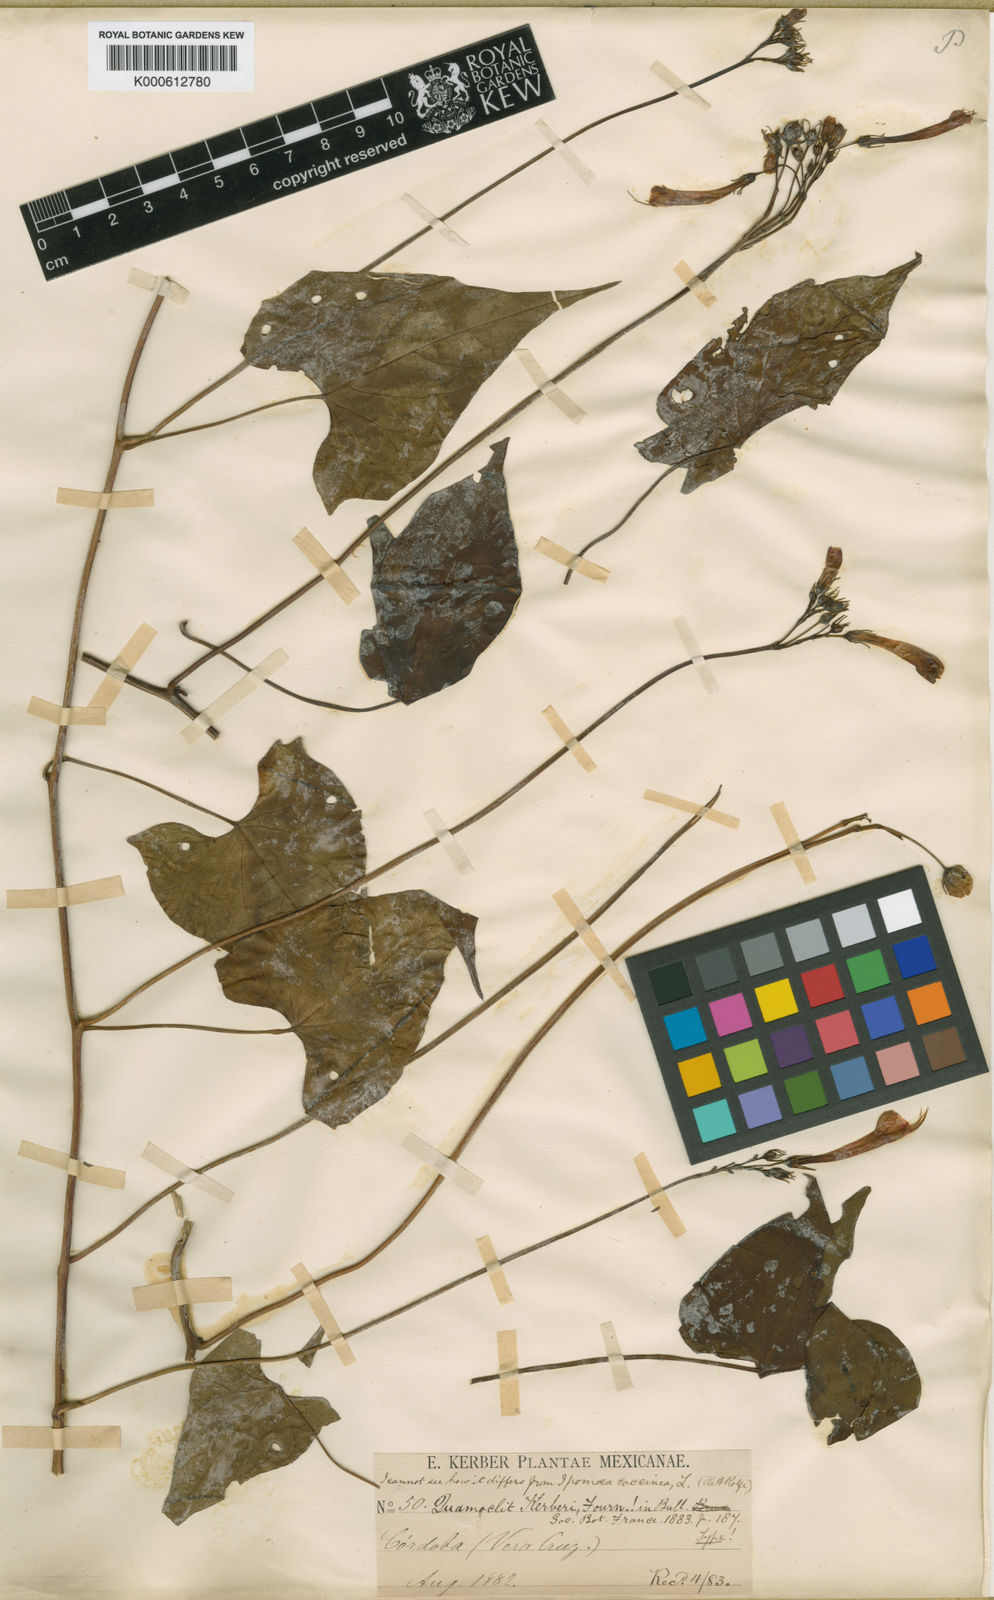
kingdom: Plantae
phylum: Tracheophyta
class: Magnoliopsida
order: Solanales
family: Convolvulaceae
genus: Ipomoea
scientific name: Ipomoea hastigera
